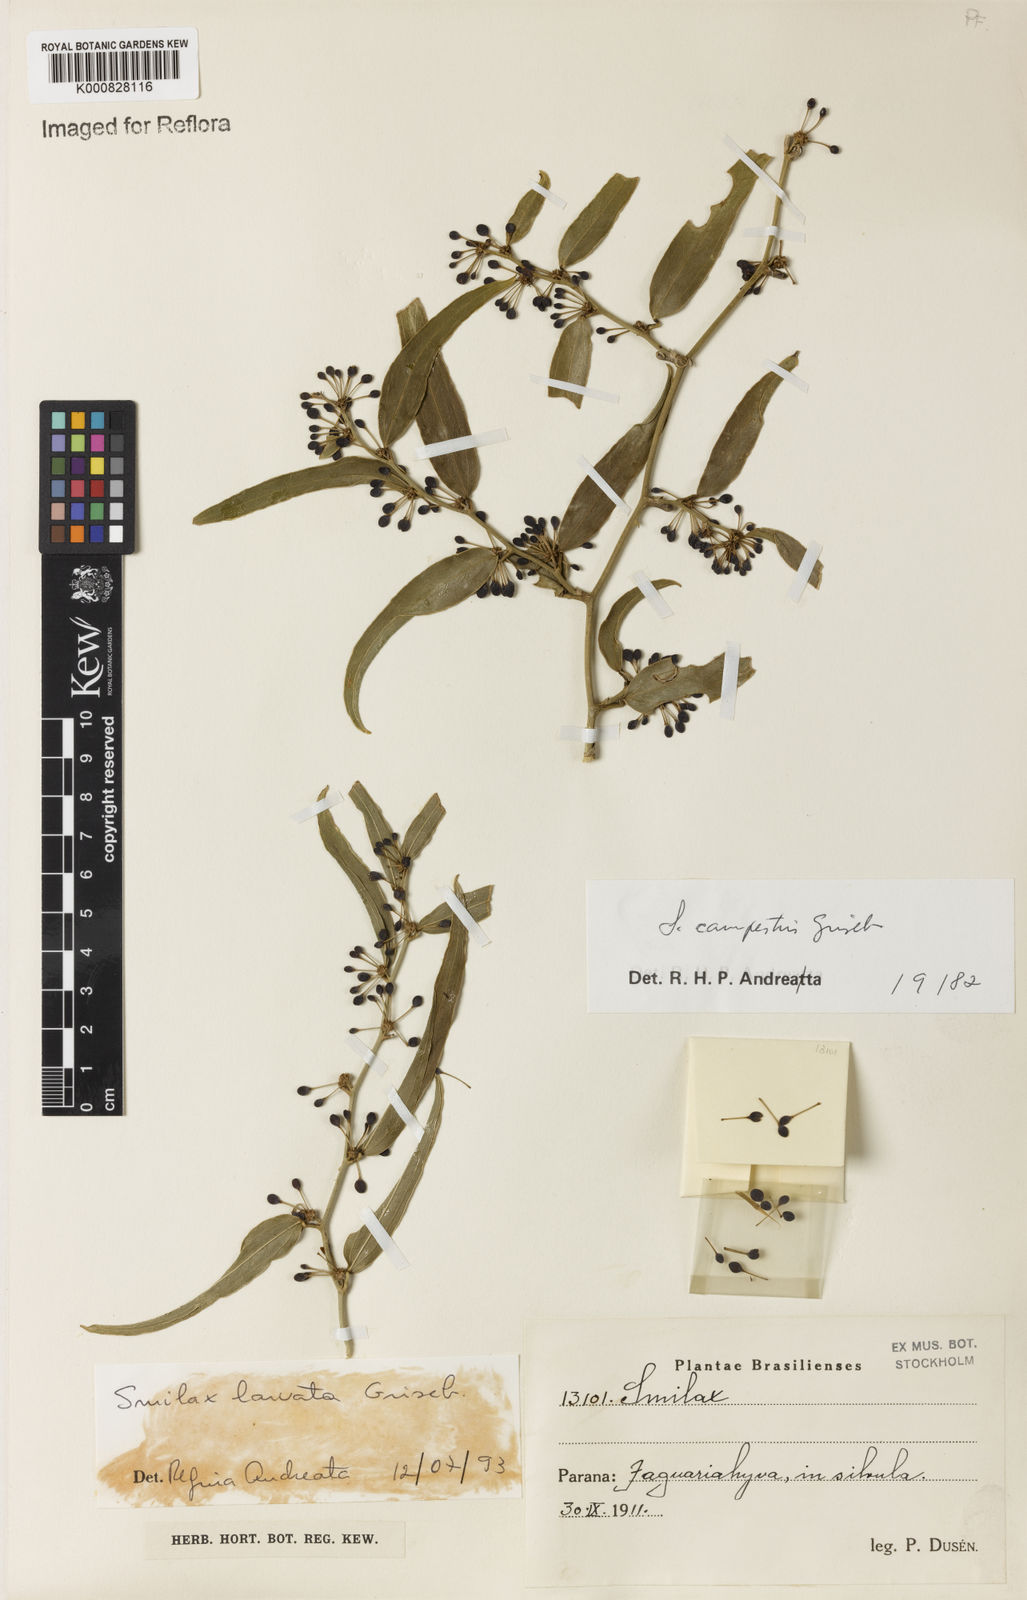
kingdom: Plantae
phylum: Tracheophyta
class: Liliopsida
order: Liliales
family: Smilacaceae
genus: Smilax
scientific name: Smilax larvata
